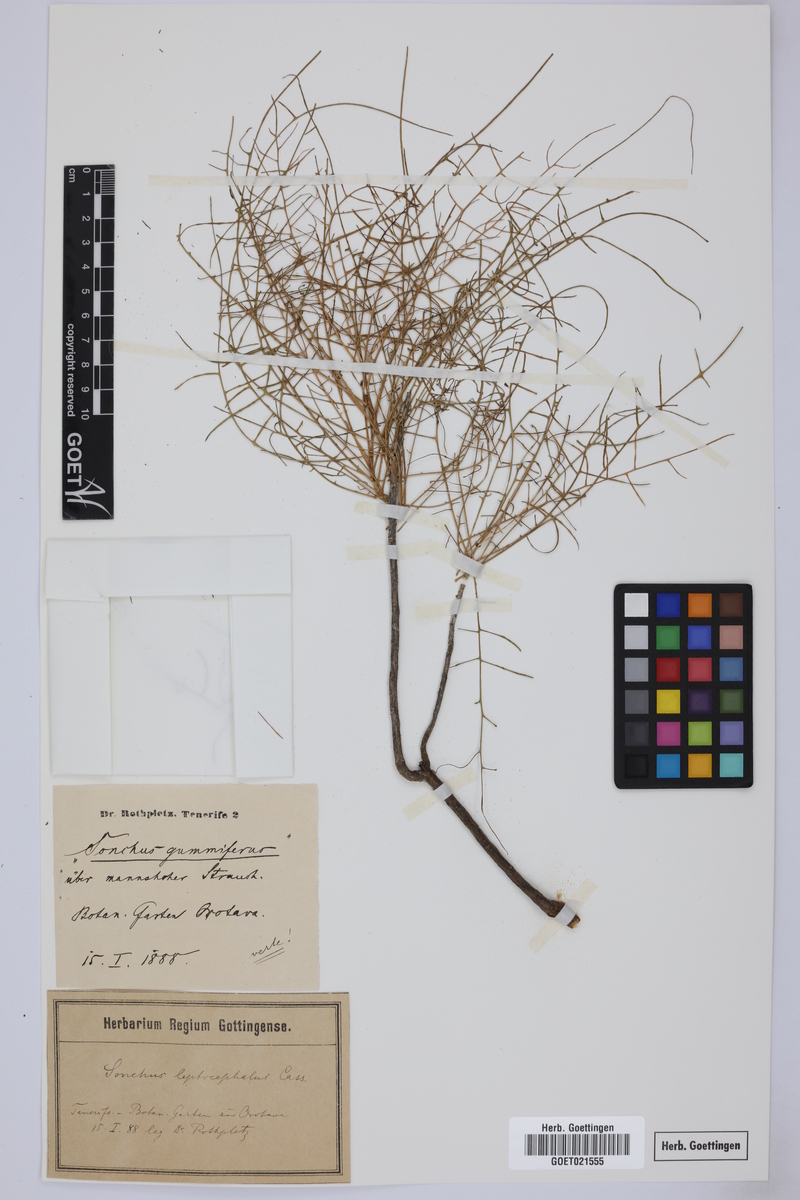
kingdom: Plantae
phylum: Tracheophyta
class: Magnoliopsida
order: Asterales
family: Asteraceae
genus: Sonchus
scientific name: Sonchus leptocephalus
